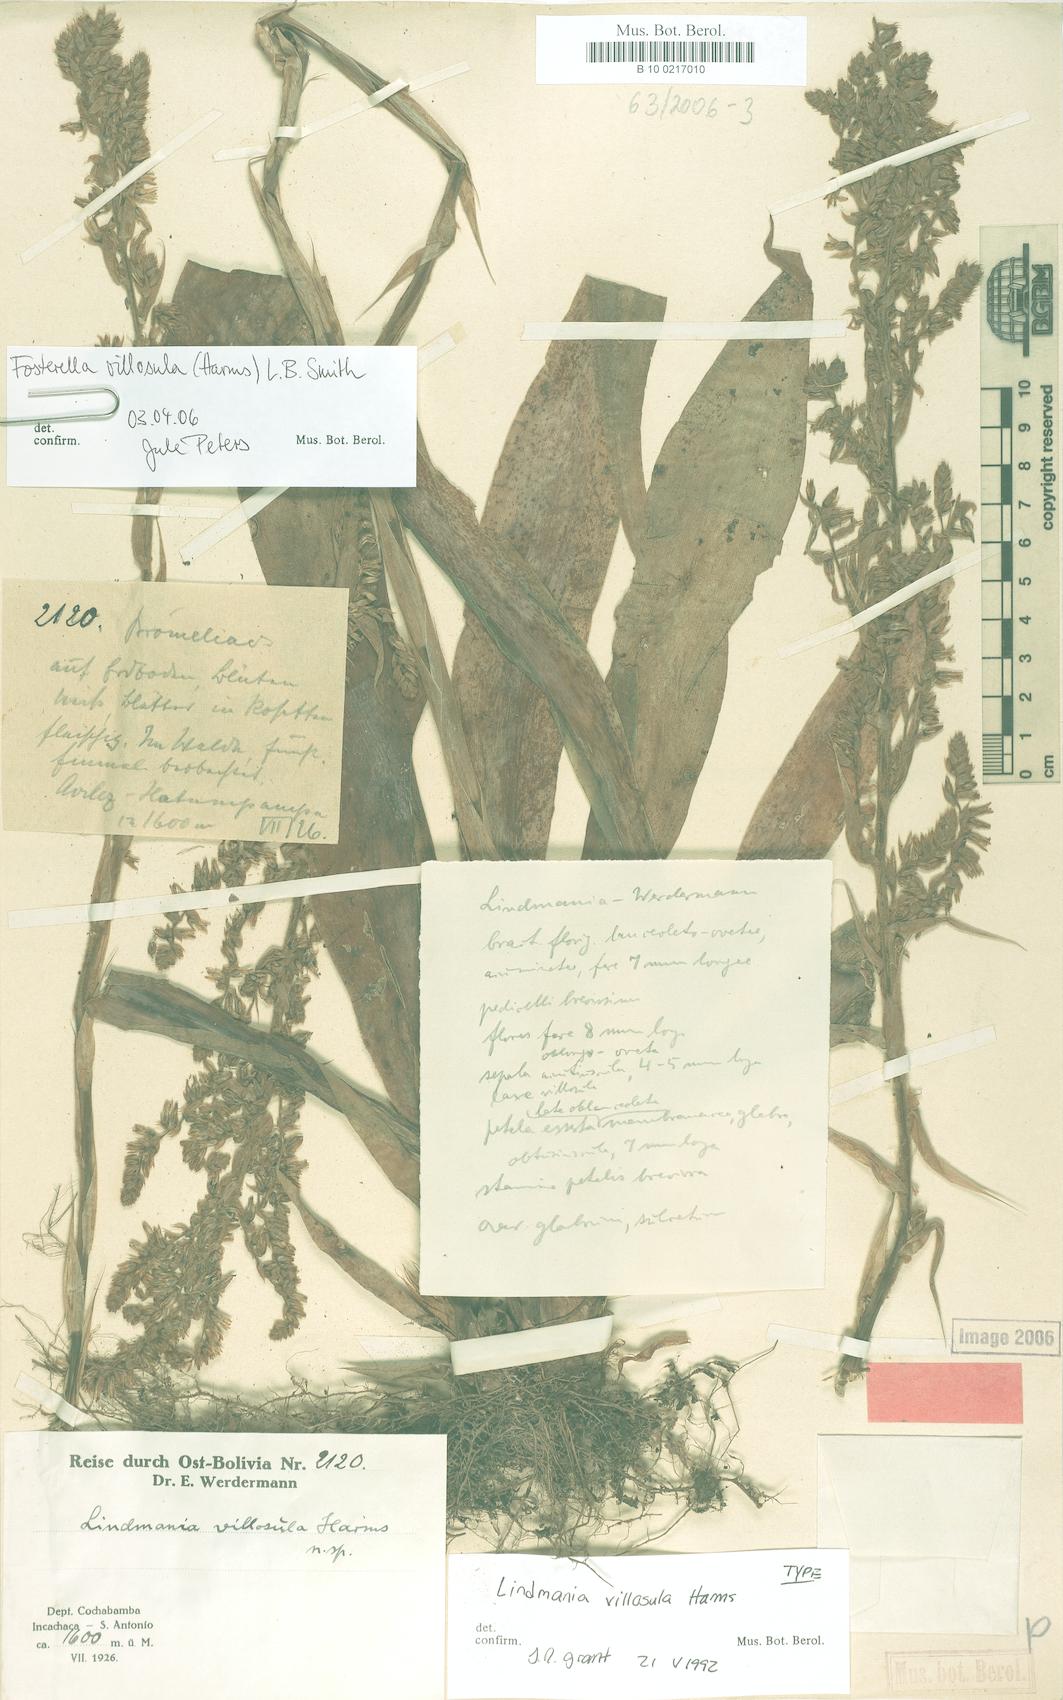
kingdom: Plantae
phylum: Tracheophyta
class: Liliopsida
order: Poales
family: Bromeliaceae
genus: Fosterella
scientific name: Fosterella villosula
